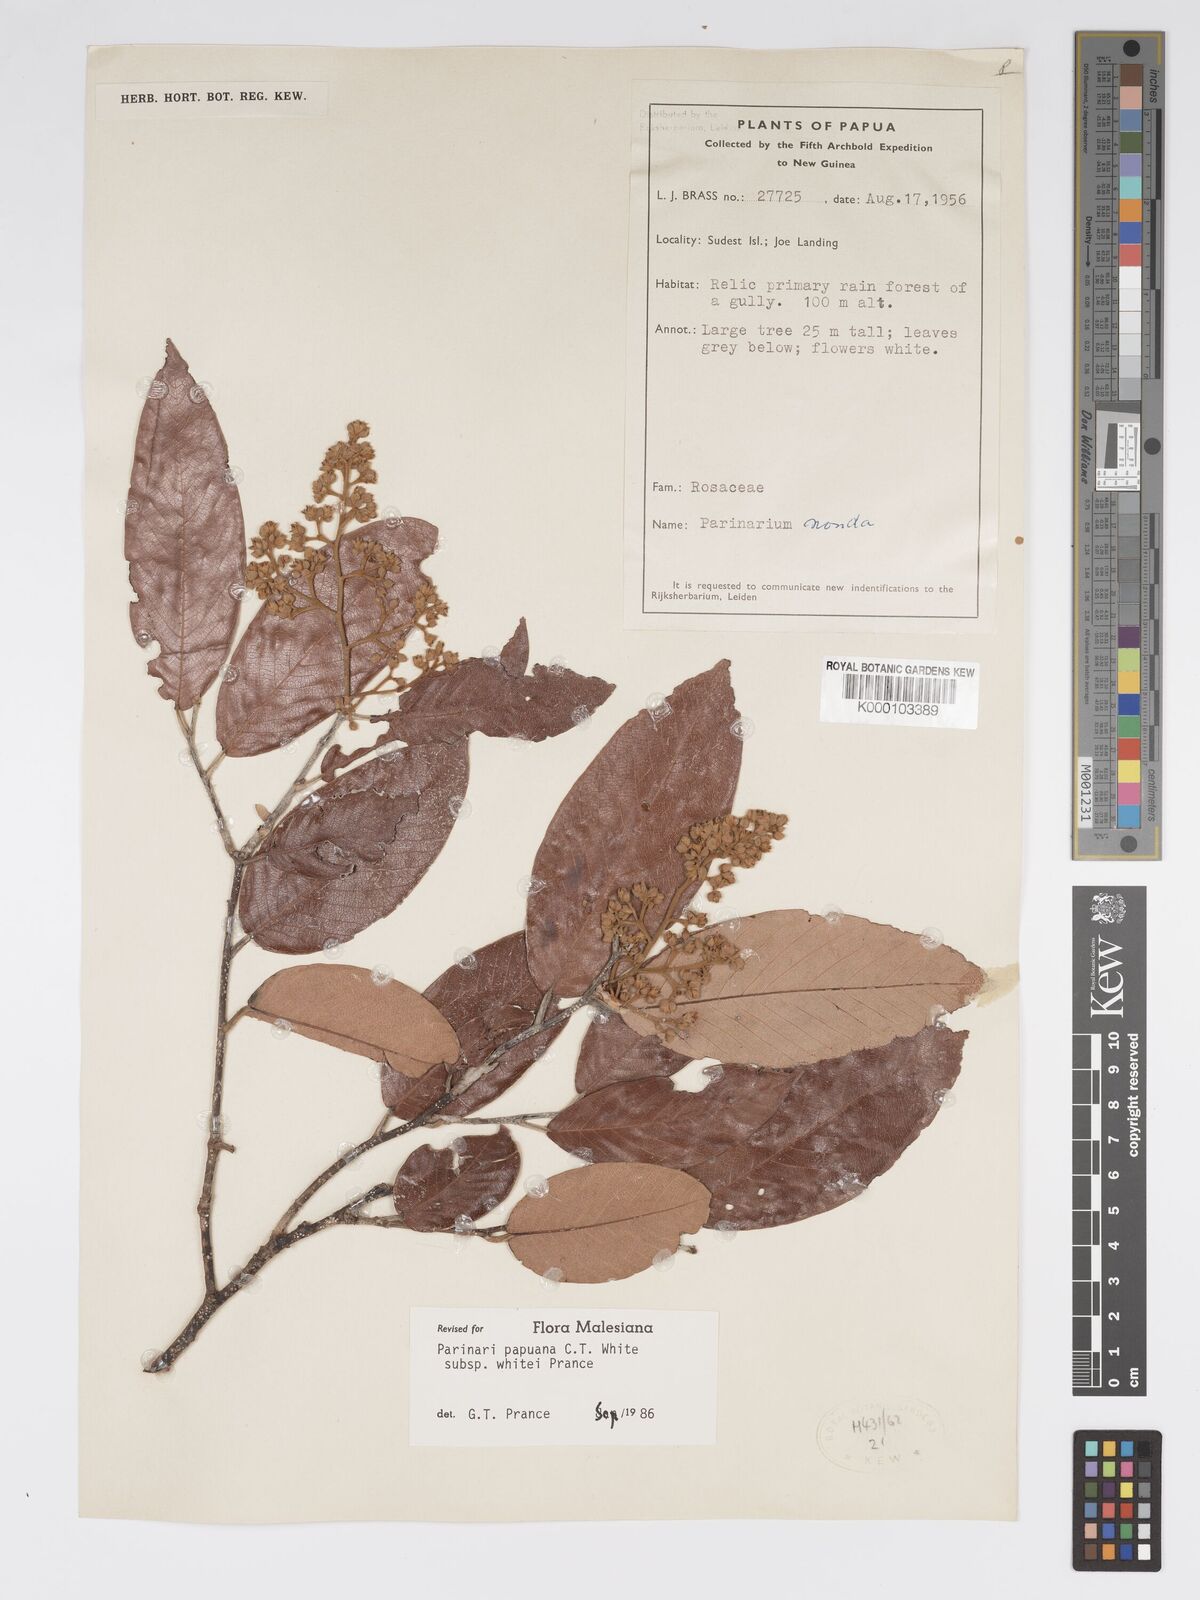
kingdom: Plantae
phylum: Tracheophyta
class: Magnoliopsida
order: Malpighiales
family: Chrysobalanaceae
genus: Parinari
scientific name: Parinari papuana
